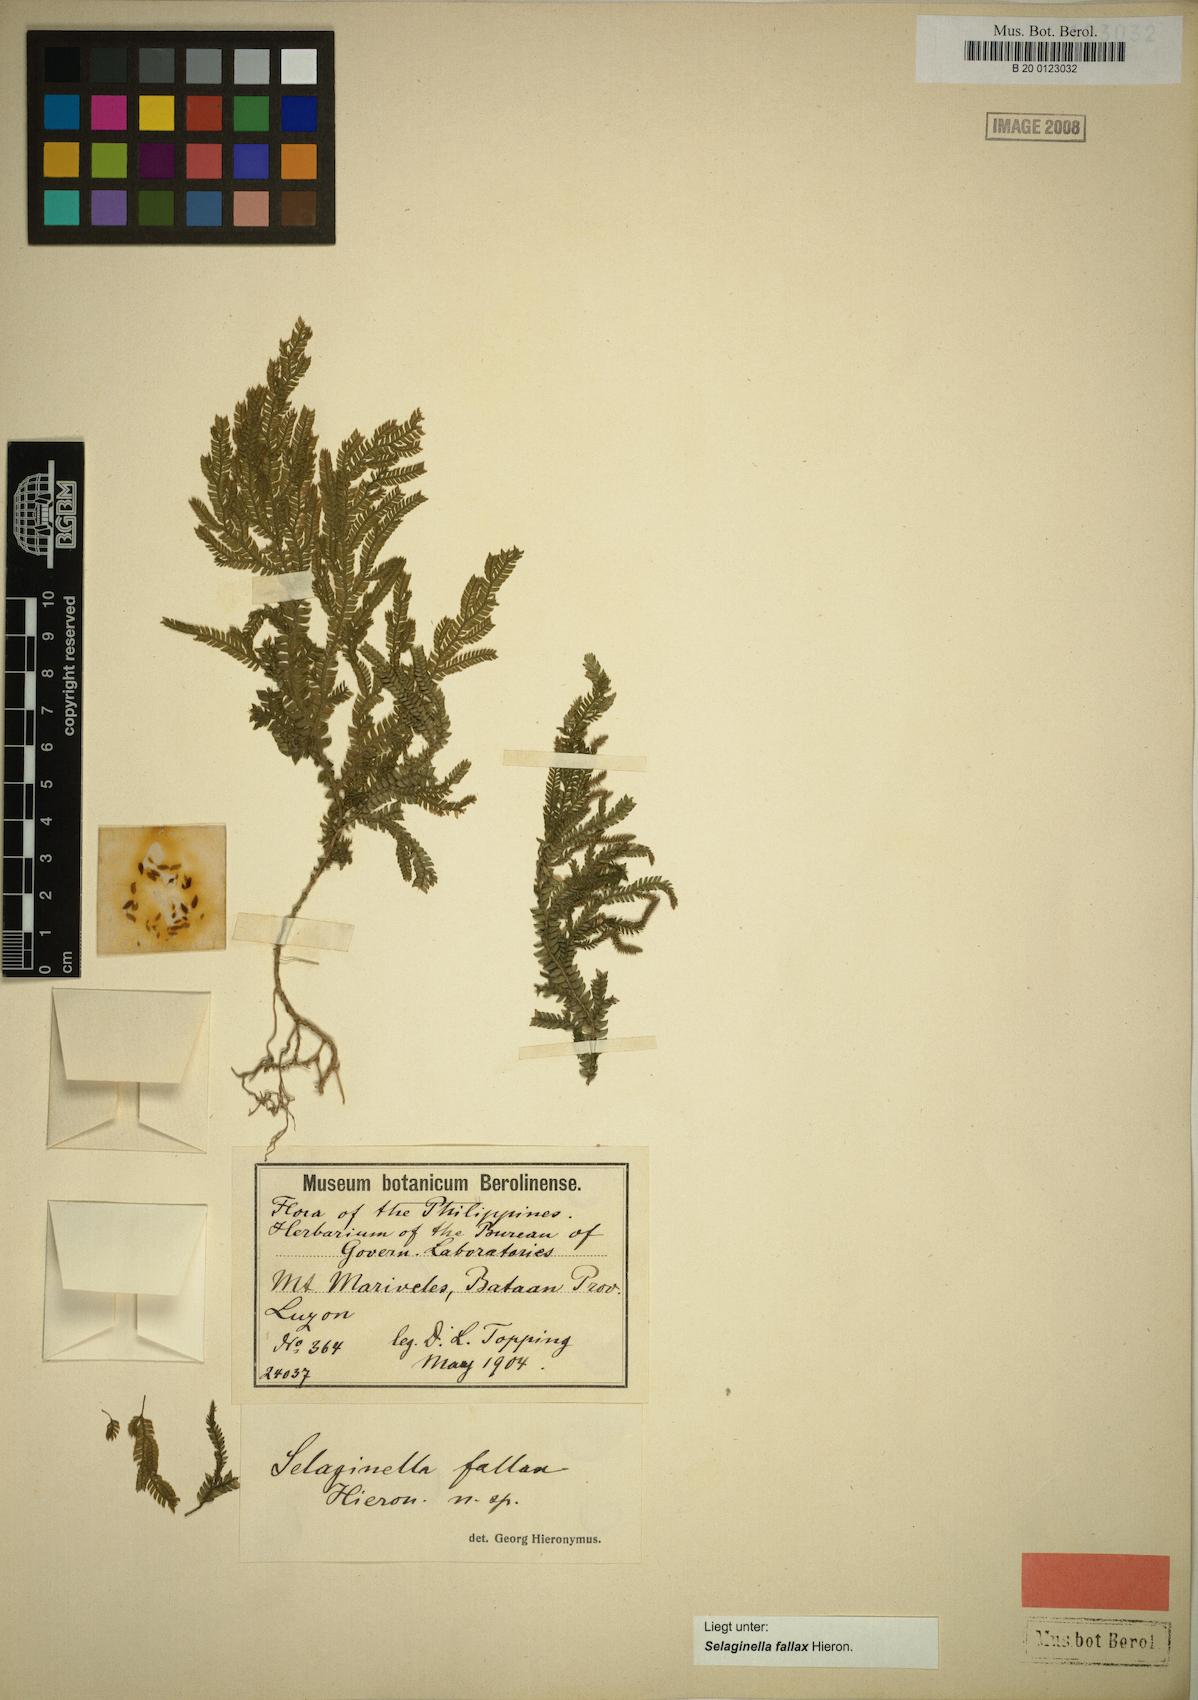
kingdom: Plantae
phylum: Tracheophyta
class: Lycopodiopsida
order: Selaginellales
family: Selaginellaceae
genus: Selaginella
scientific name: Selaginella jagorii
